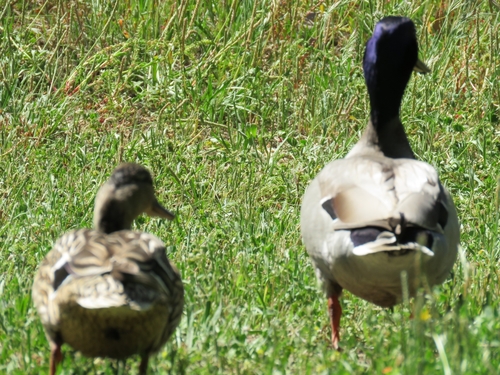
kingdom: Animalia
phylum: Chordata
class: Aves
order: Anseriformes
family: Anatidae
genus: Anas
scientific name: Anas platyrhynchos
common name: Mallard
